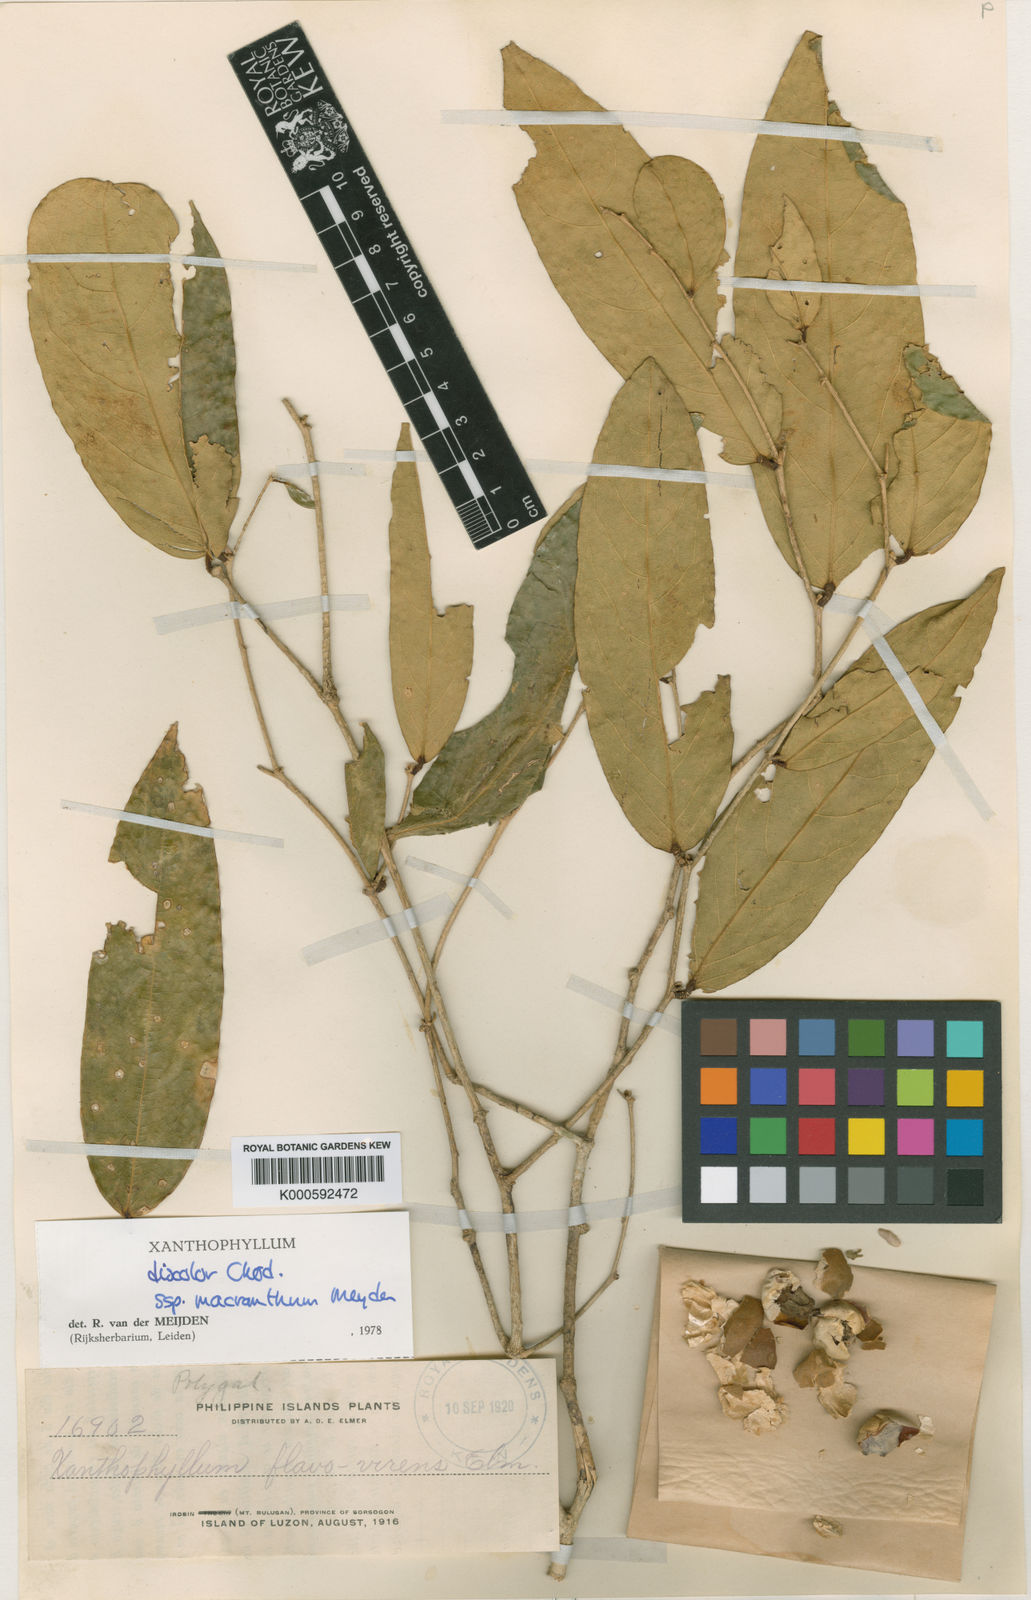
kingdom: Plantae
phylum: Tracheophyta
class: Magnoliopsida
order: Fabales
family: Polygalaceae
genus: Xanthophyllum
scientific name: Xanthophyllum discolor
